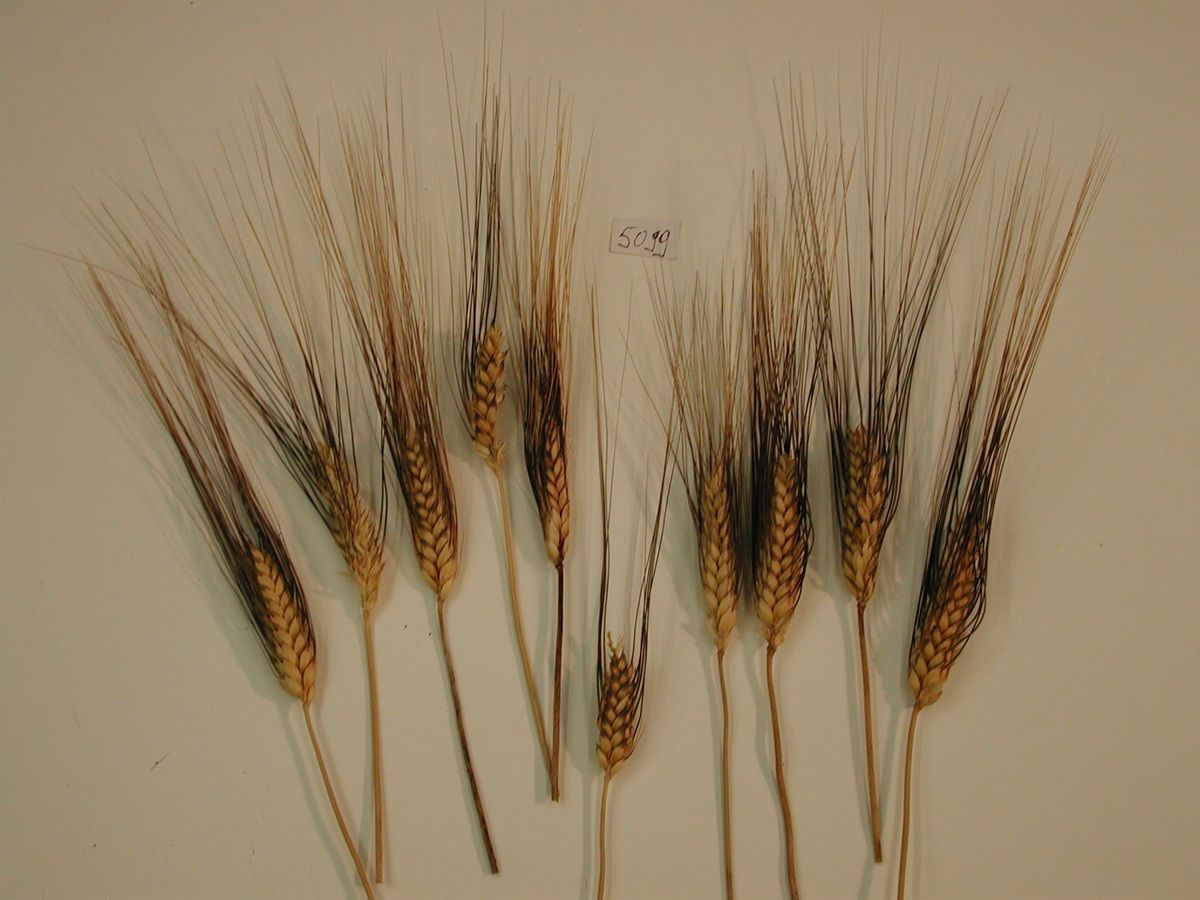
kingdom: Plantae
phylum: Tracheophyta
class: Liliopsida
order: Poales
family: Poaceae
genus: Triticum
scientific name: Triticum turgidum
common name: Wheat
